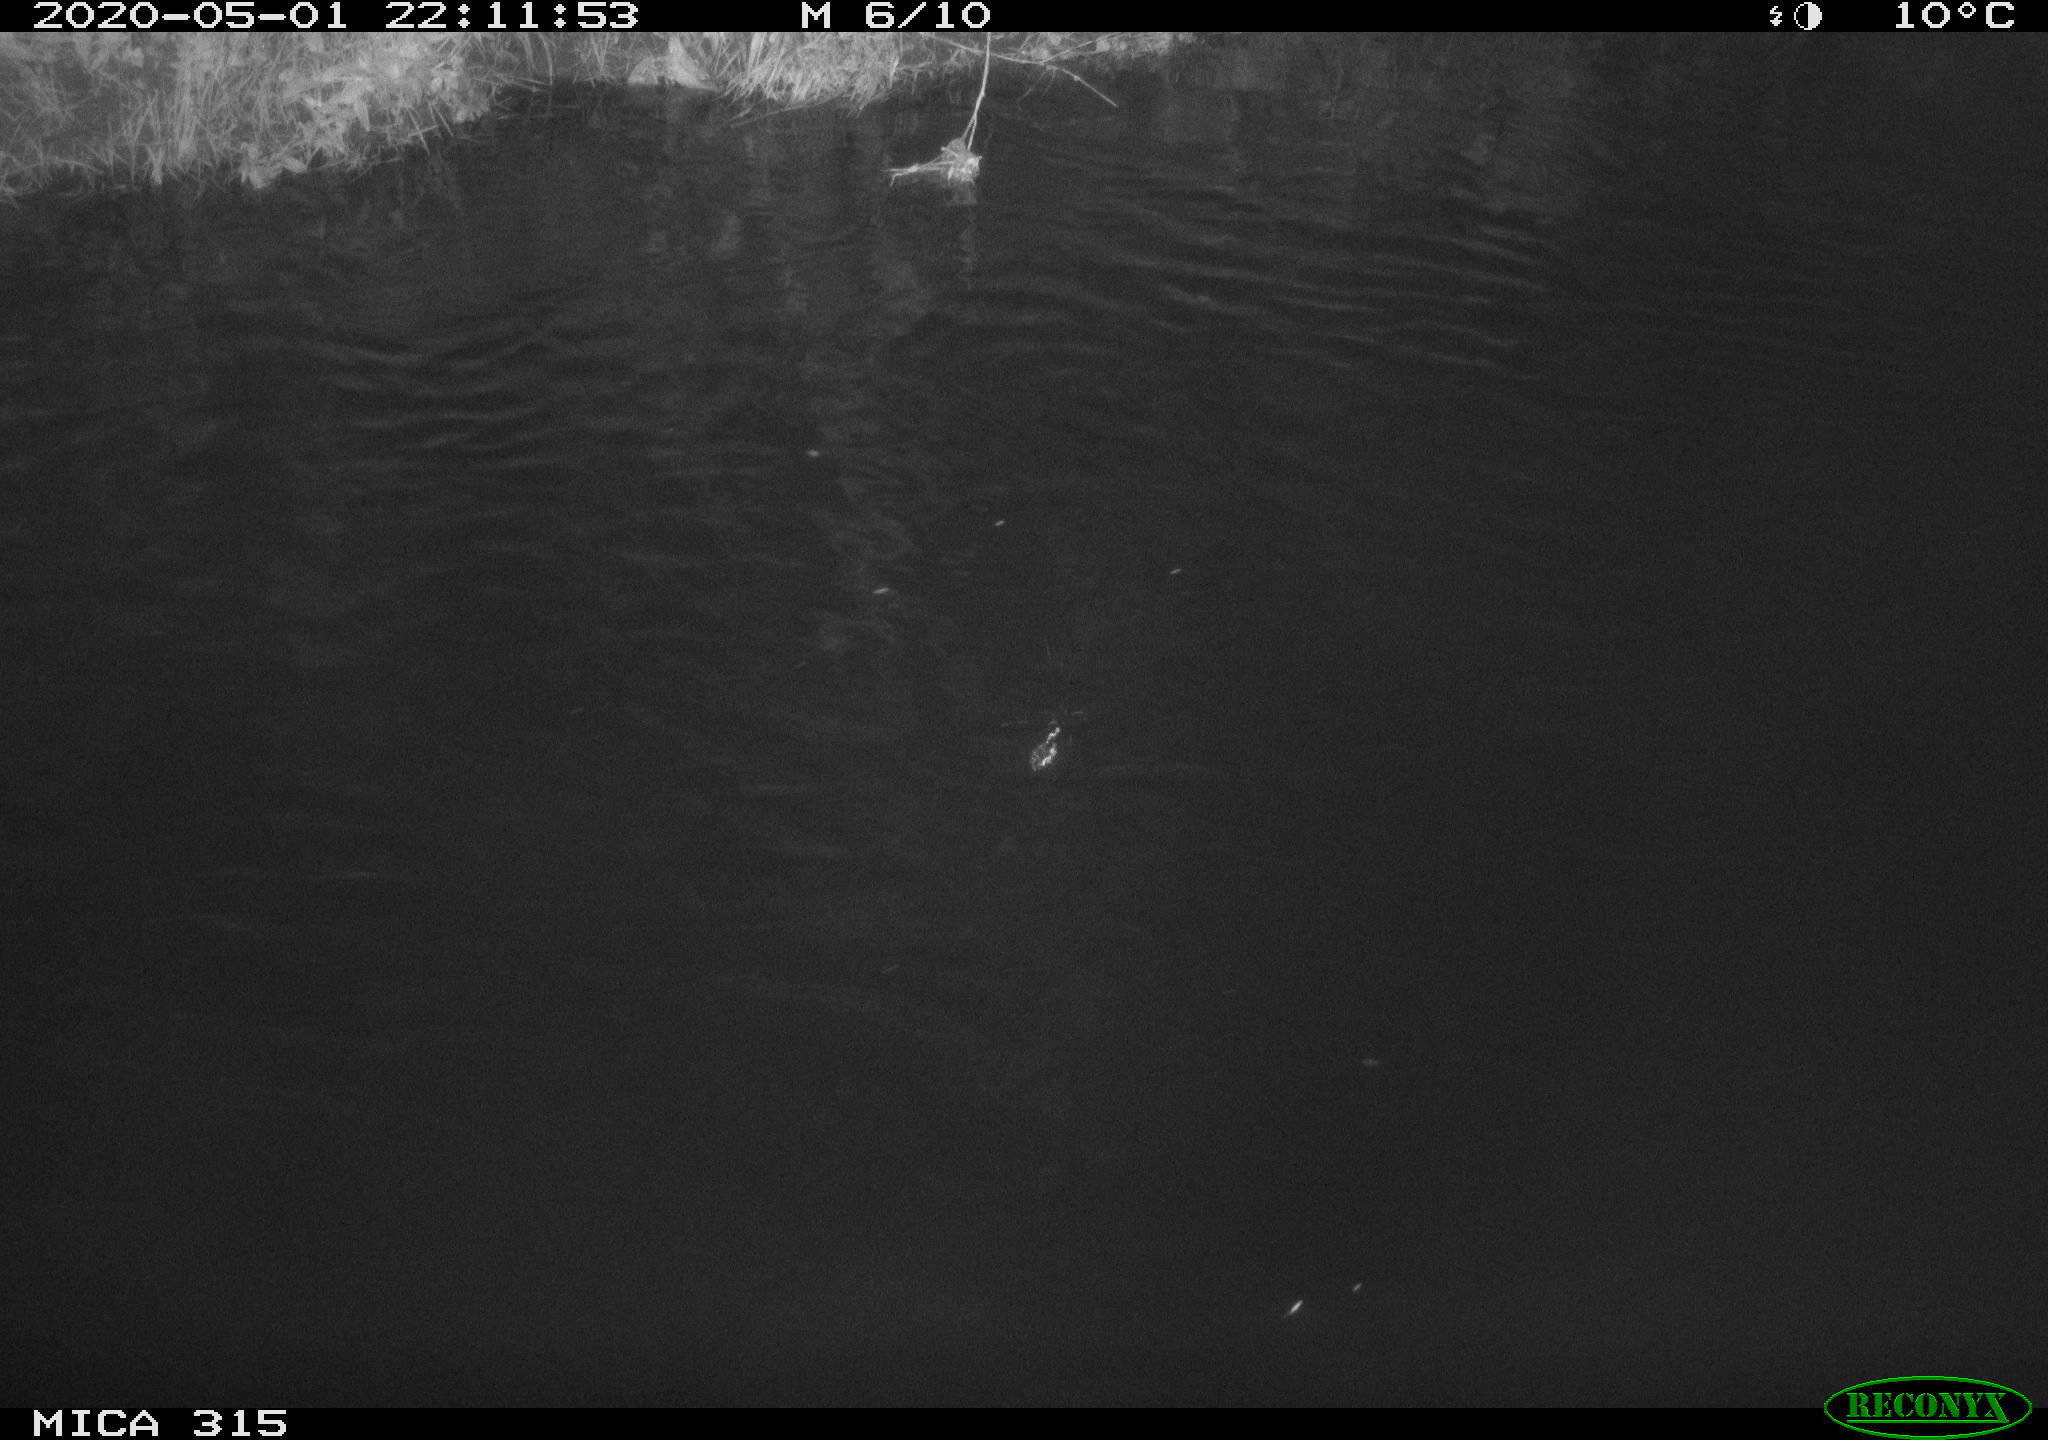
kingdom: Animalia
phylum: Chordata
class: Aves
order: Anseriformes
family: Anatidae
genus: Anas
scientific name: Anas platyrhynchos
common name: Mallard
